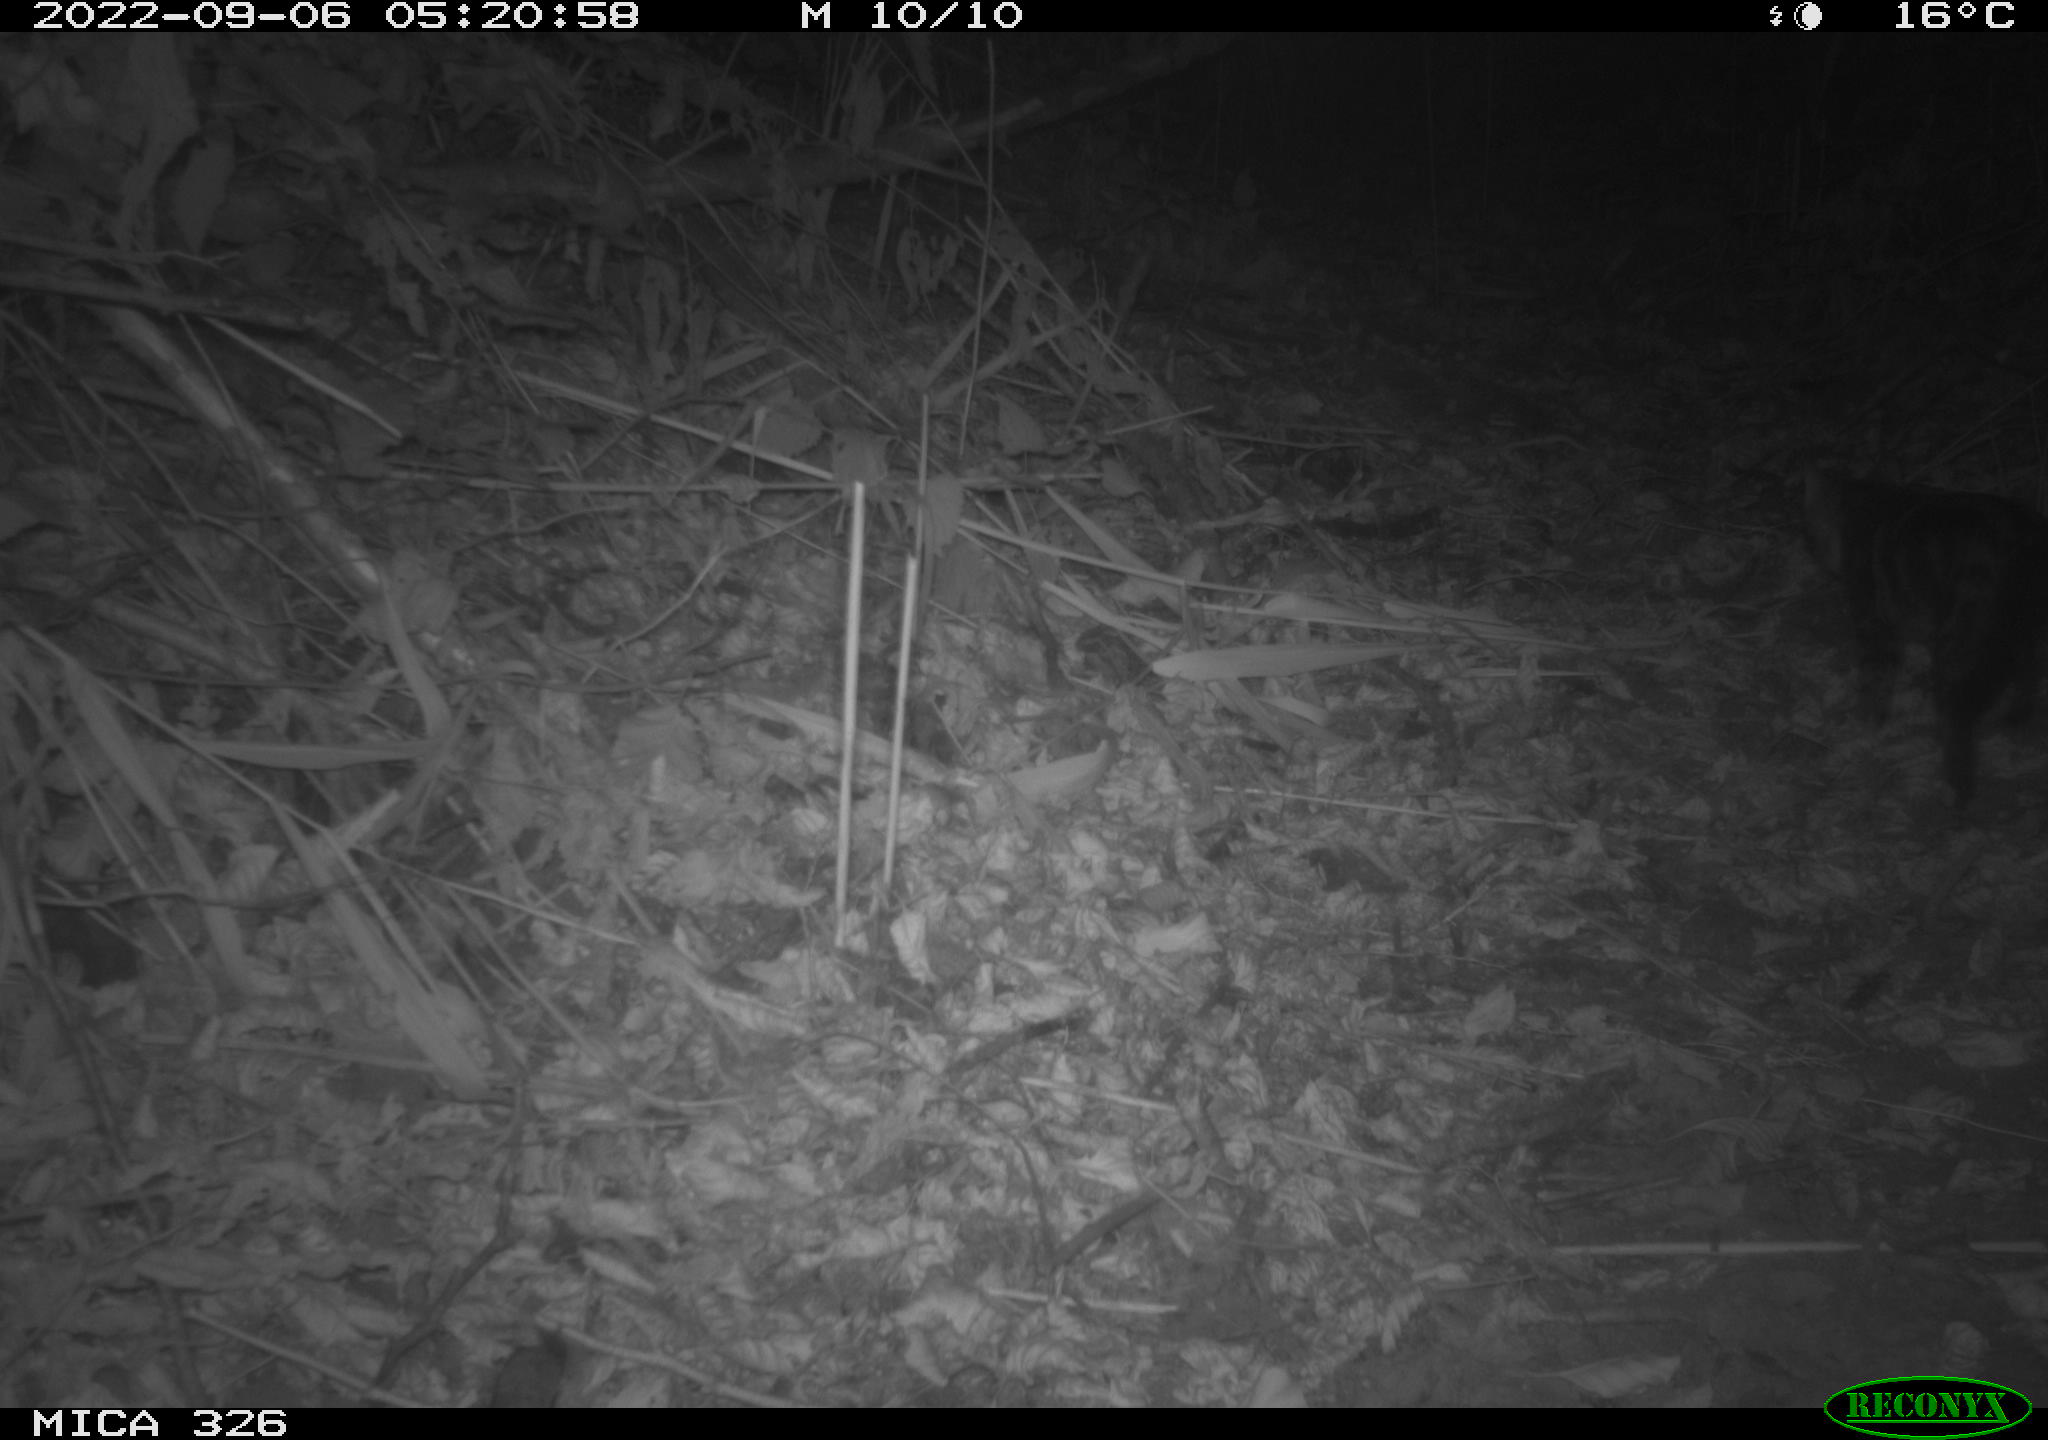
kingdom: Animalia
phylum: Chordata
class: Mammalia
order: Carnivora
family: Felidae
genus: Felis
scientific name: Felis catus
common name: Domestic cat
